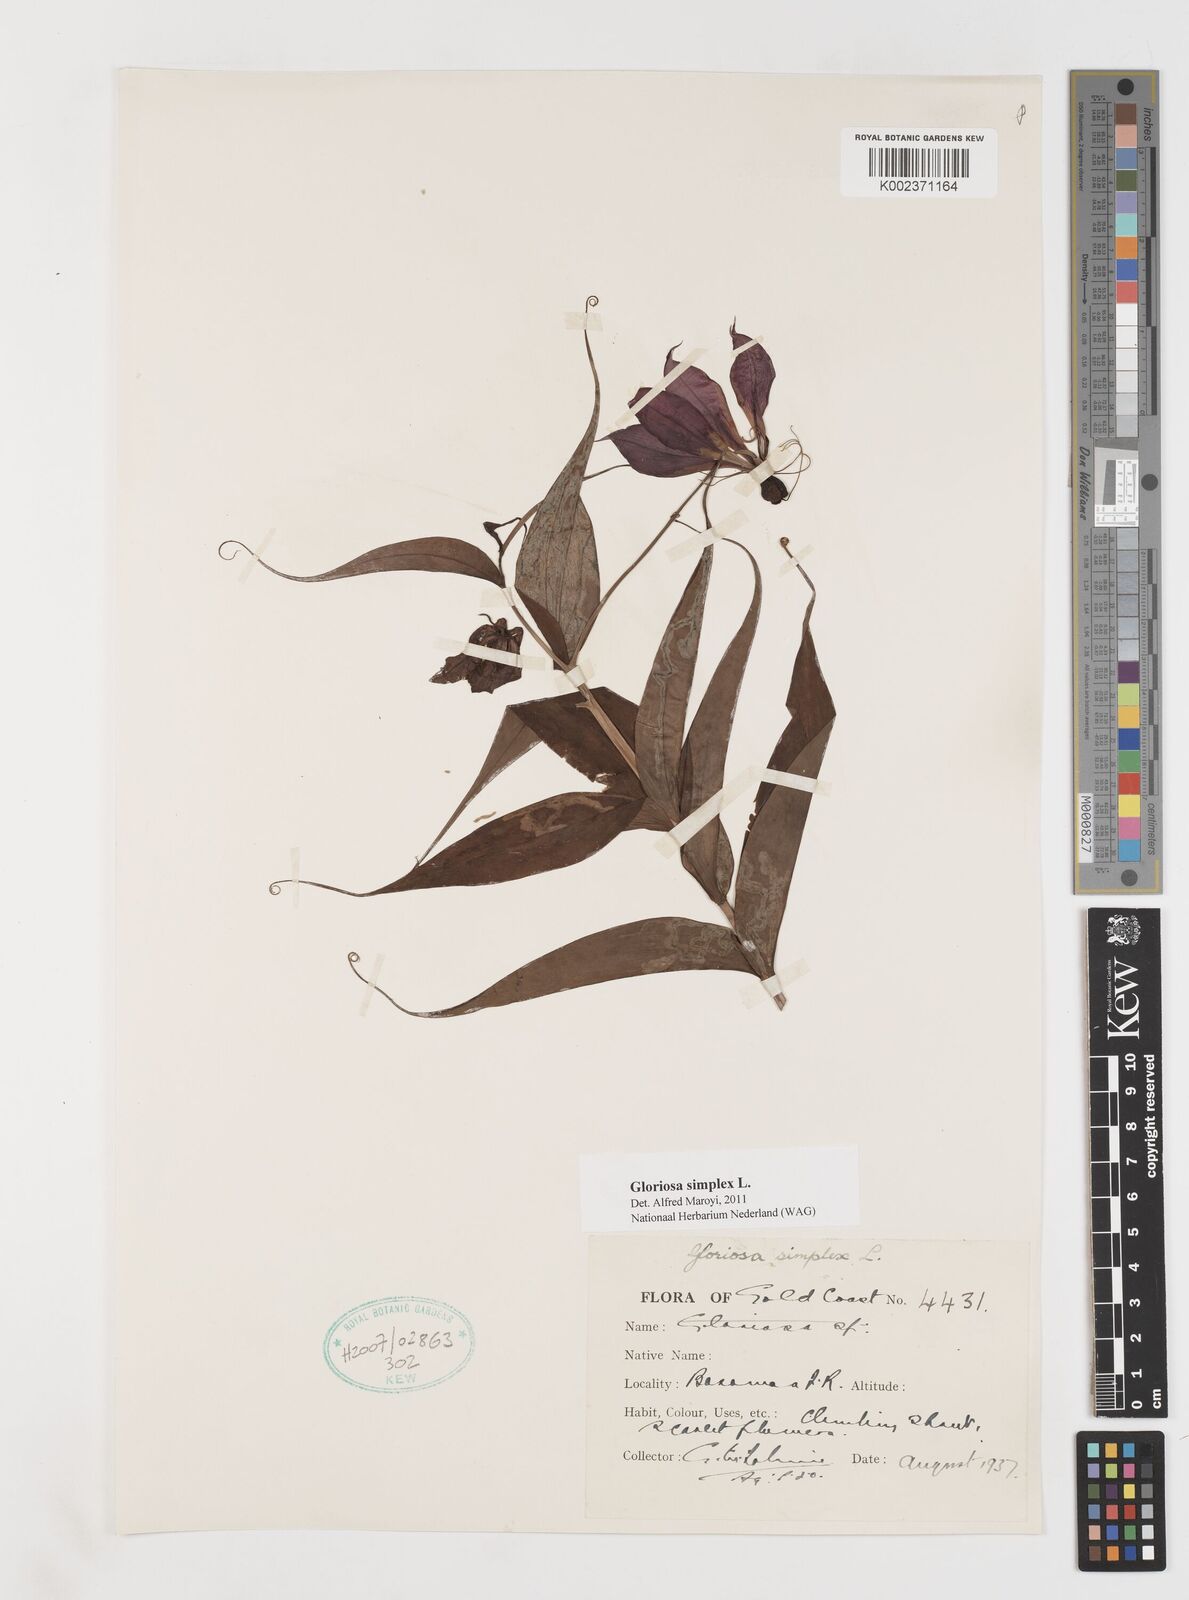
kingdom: Plantae
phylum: Tracheophyta
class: Liliopsida
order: Liliales
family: Colchicaceae
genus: Gloriosa
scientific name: Gloriosa simplex
